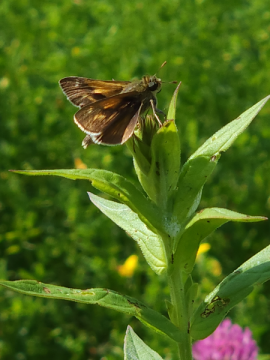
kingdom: Animalia
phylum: Arthropoda
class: Insecta
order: Lepidoptera
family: Hesperiidae
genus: Polites
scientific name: Polites egeremet
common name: Northern Broken-Dash
